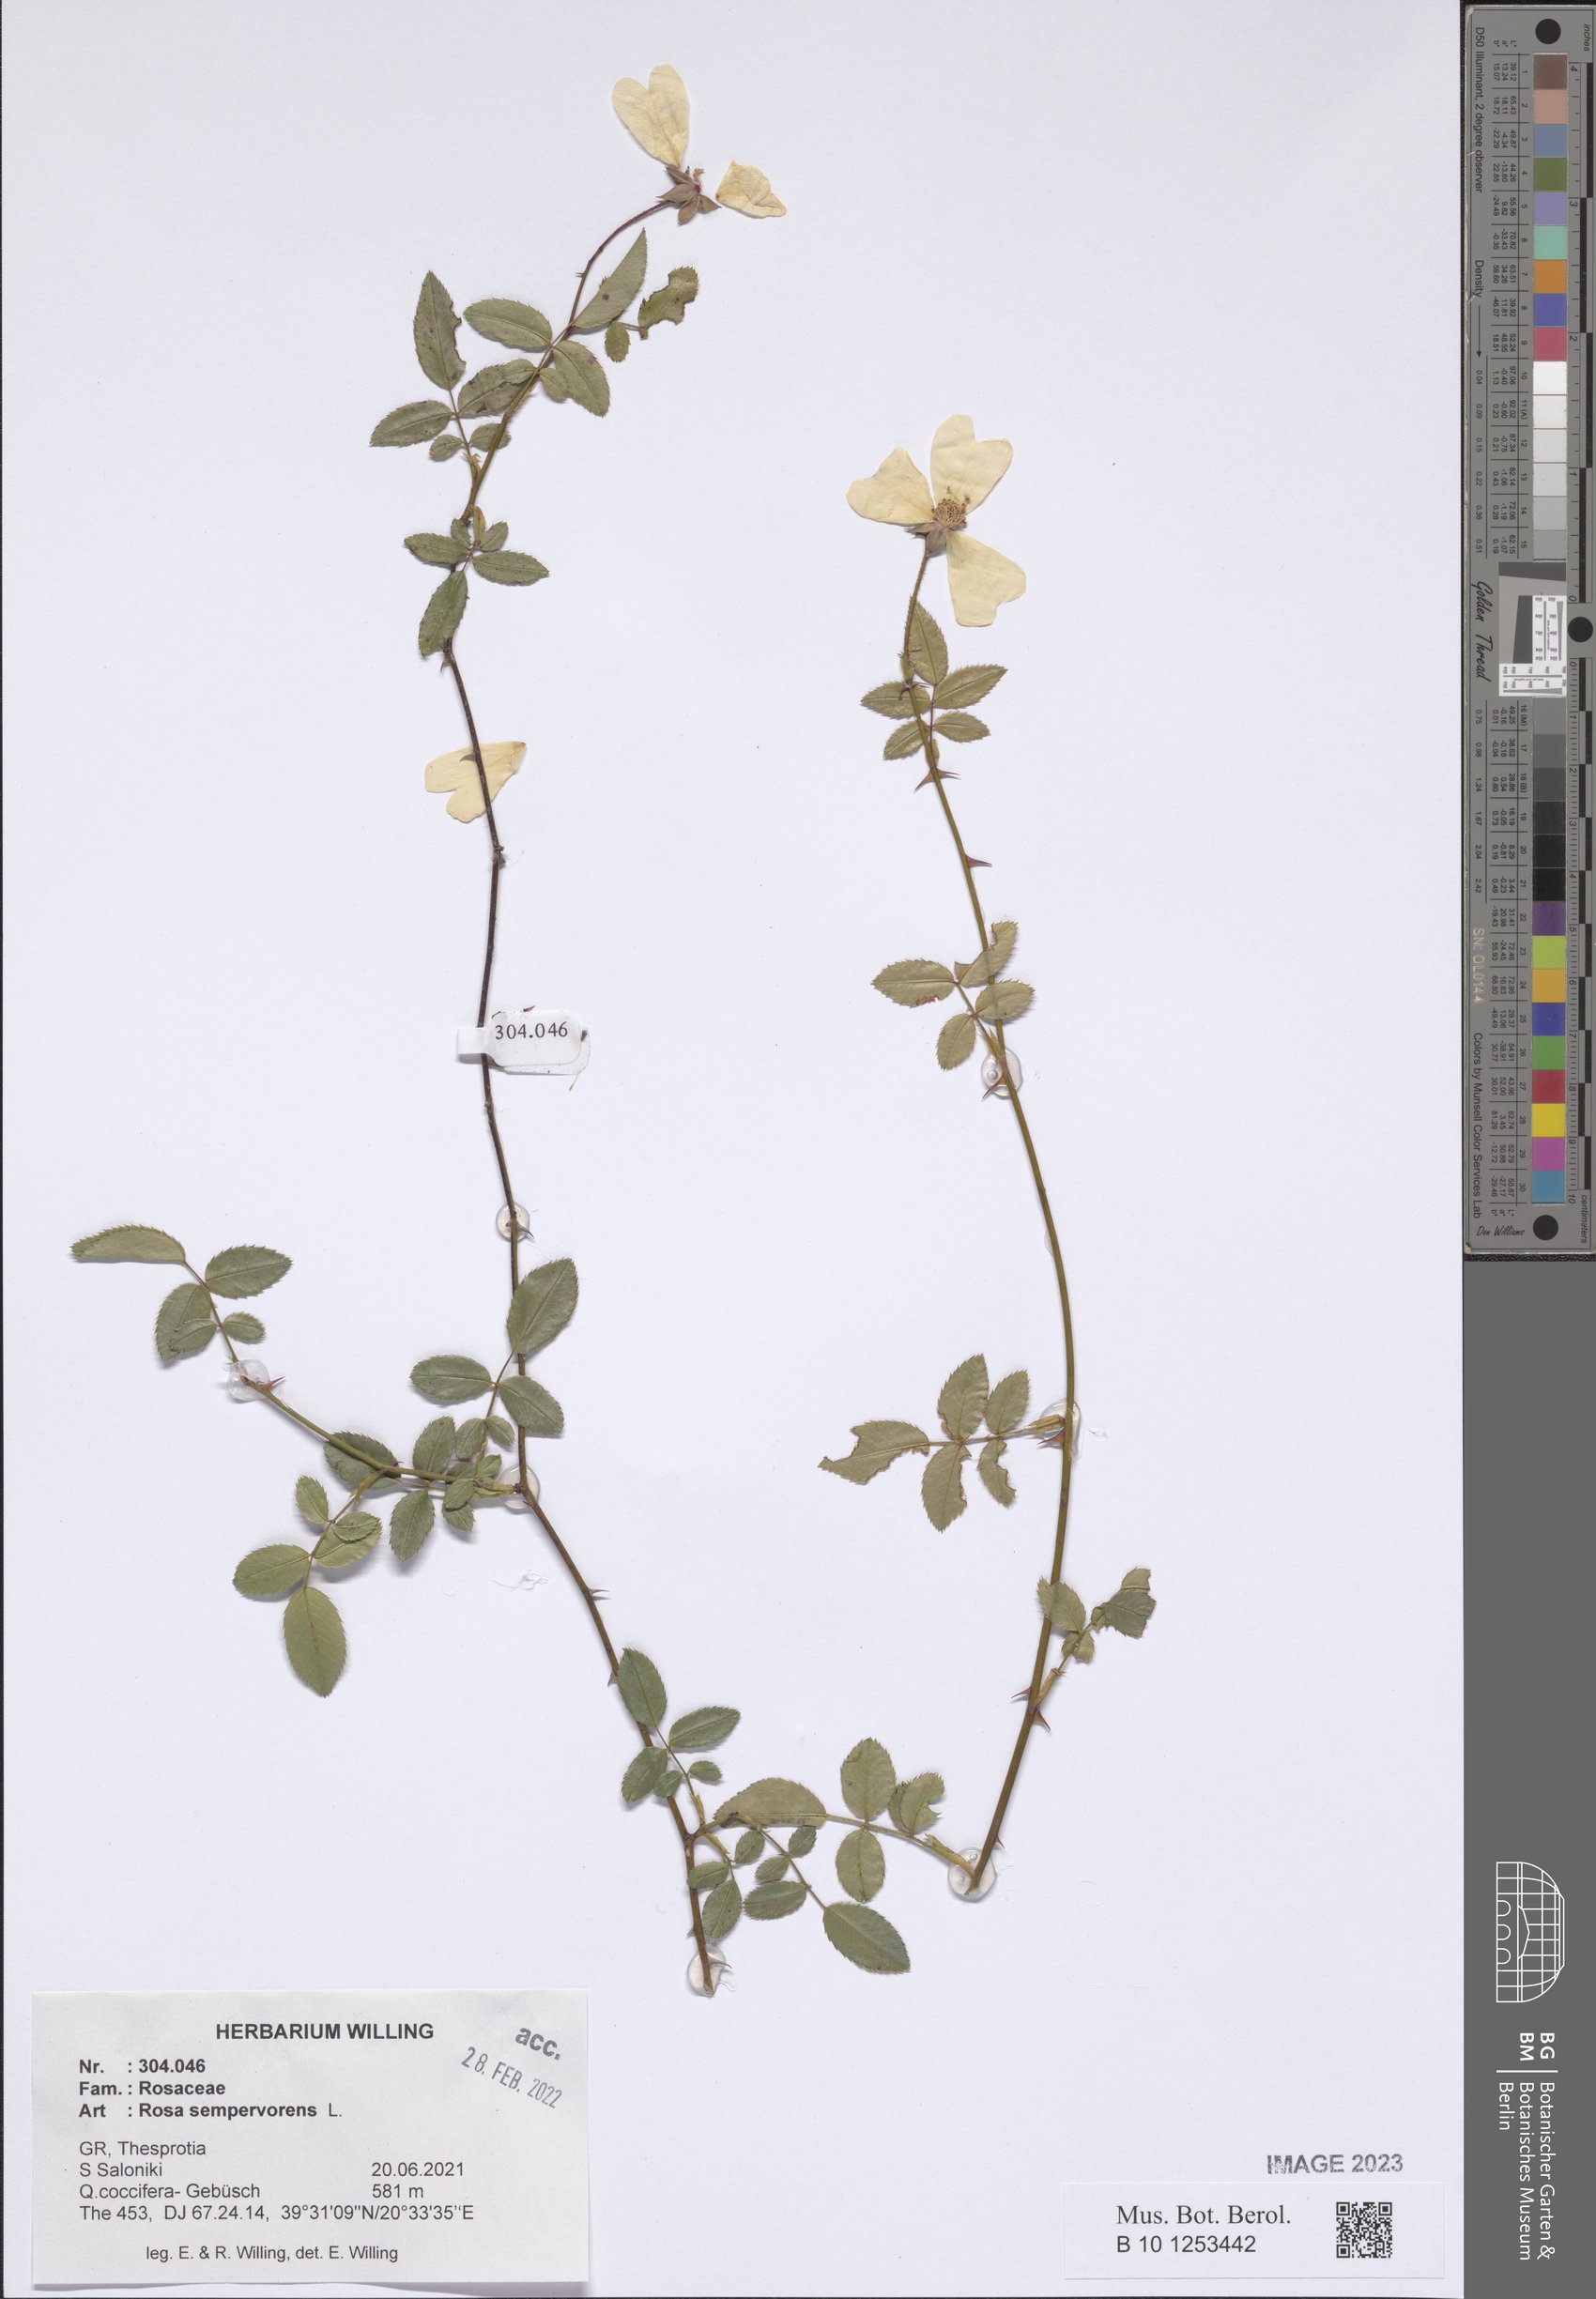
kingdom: Plantae
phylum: Tracheophyta
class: Magnoliopsida
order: Rosales
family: Rosaceae
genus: Rosa
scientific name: Rosa sempervirens
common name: Evergreen rose
